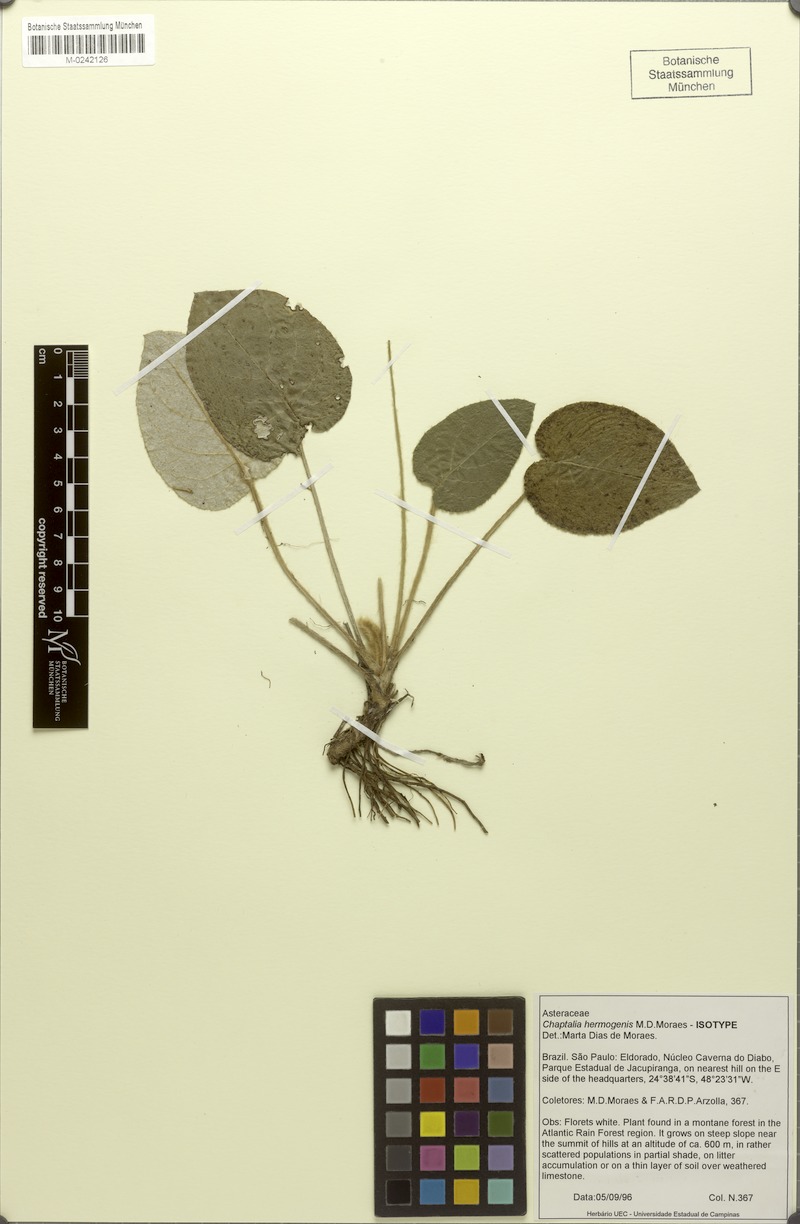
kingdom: Plantae
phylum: Tracheophyta
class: Magnoliopsida
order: Asterales
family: Asteraceae
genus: Chaptalia
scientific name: Chaptalia hermogenis
